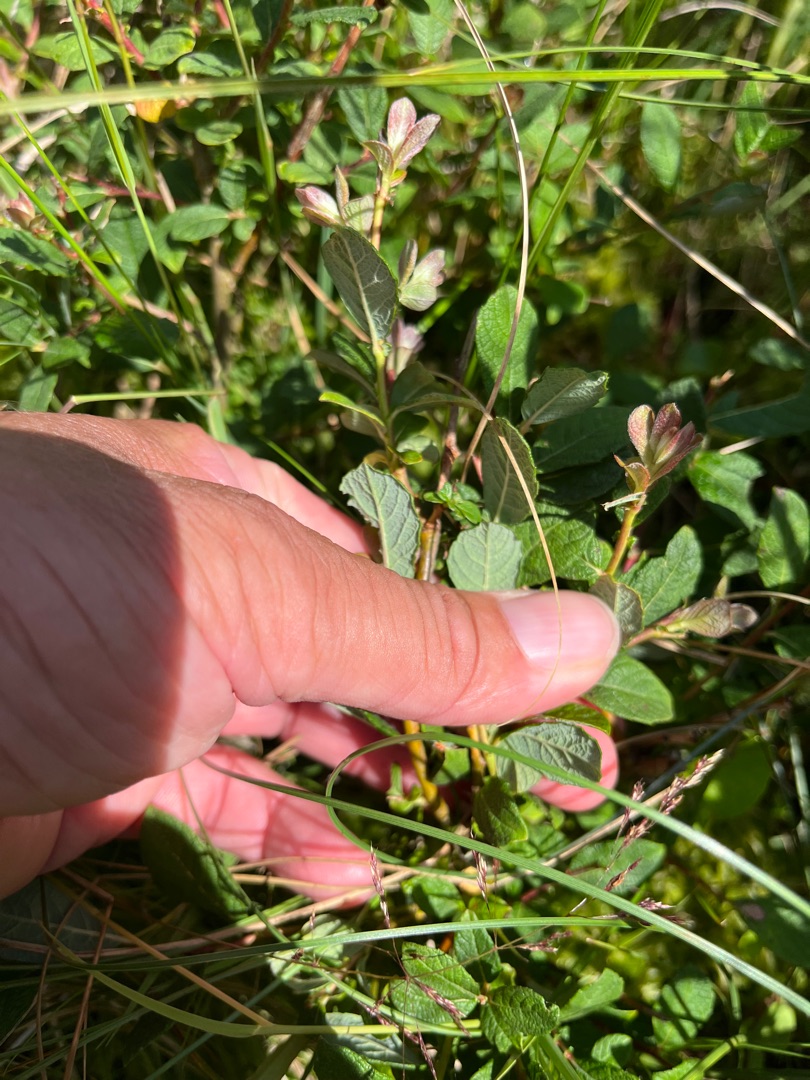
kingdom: Plantae
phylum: Tracheophyta
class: Magnoliopsida
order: Malpighiales
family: Salicaceae
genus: Salix
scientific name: Salix aurita
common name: Øret pil
